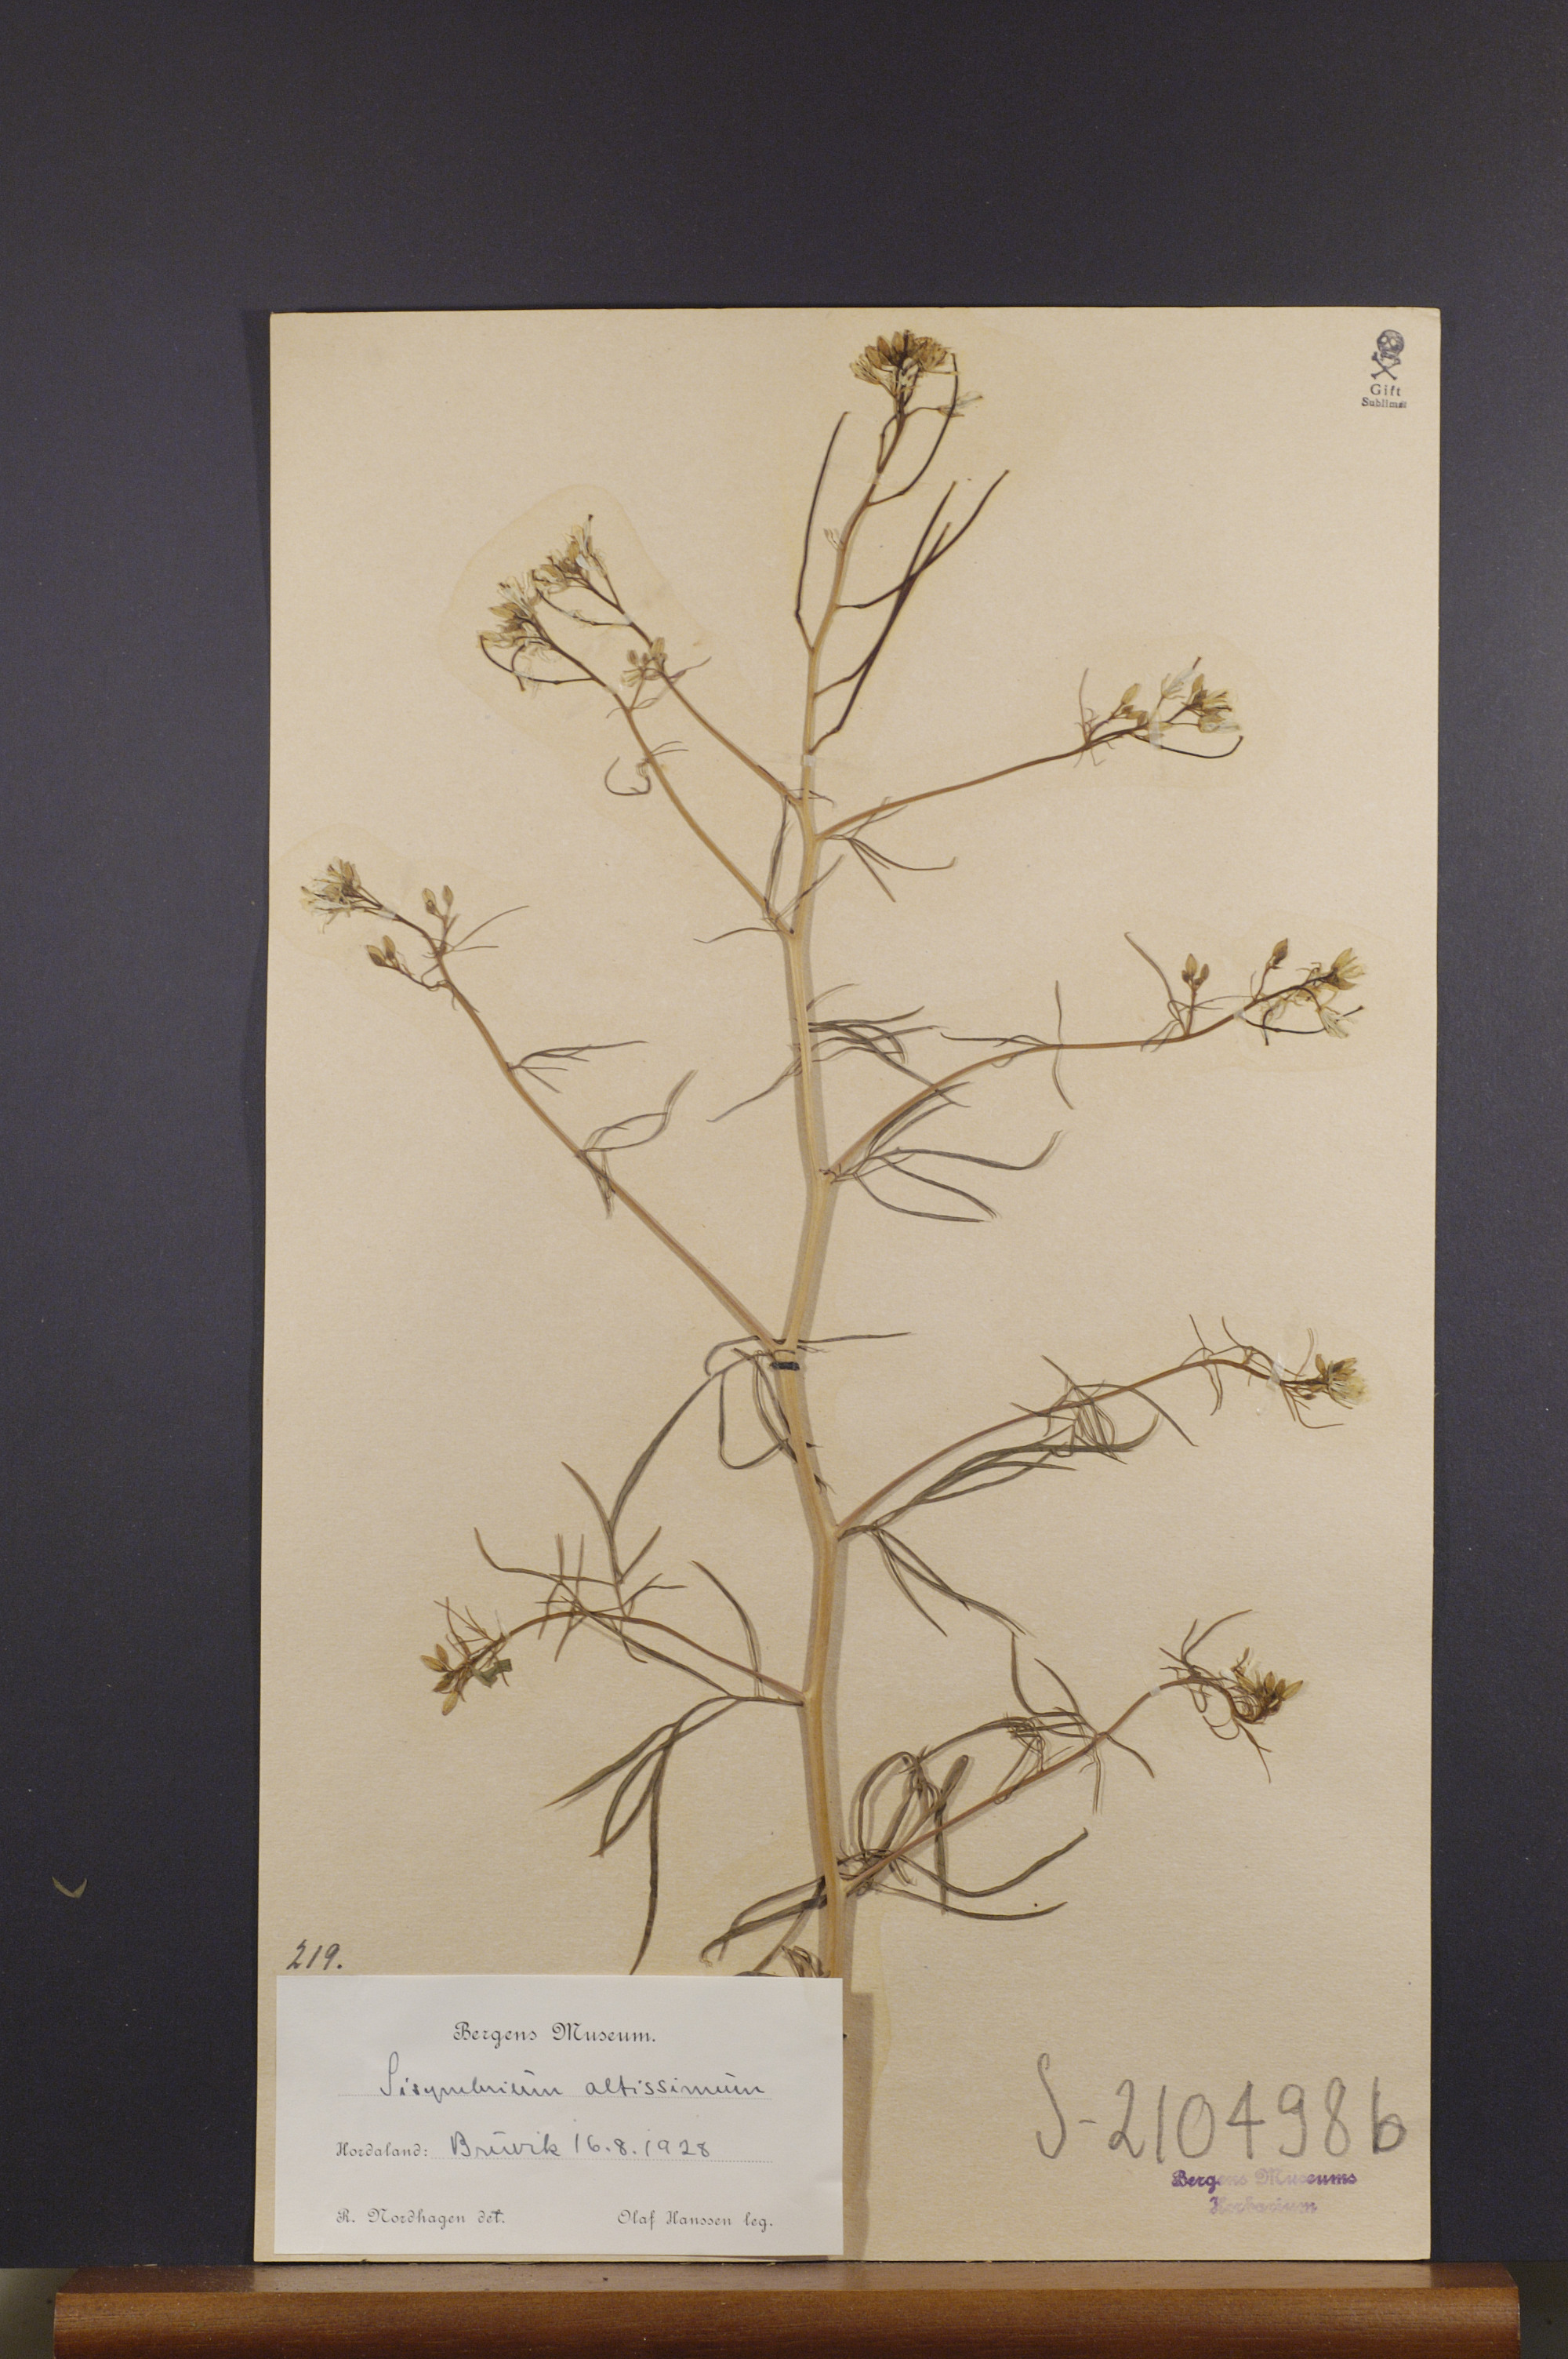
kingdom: Plantae
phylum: Tracheophyta
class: Magnoliopsida
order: Brassicales
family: Brassicaceae
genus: Sisymbrium
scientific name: Sisymbrium altissimum
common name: Tall rocket
